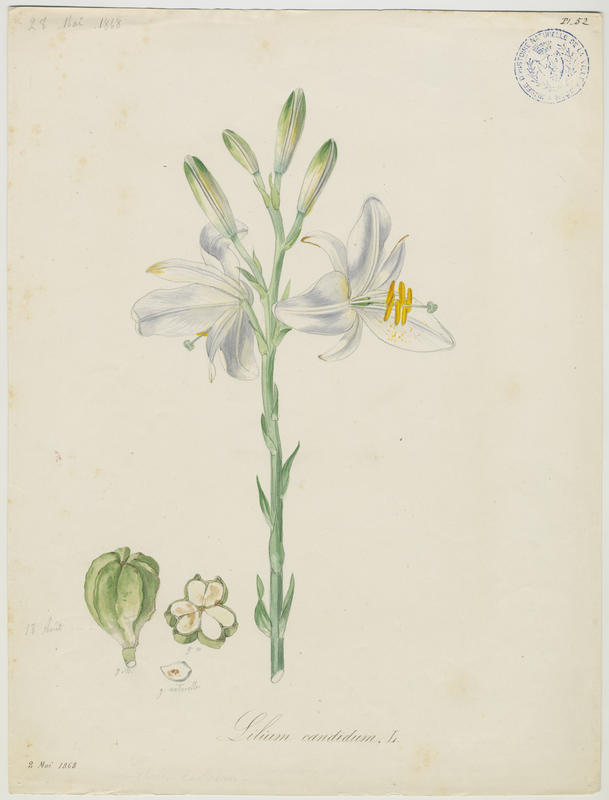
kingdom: Plantae
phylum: Tracheophyta
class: Liliopsida
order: Liliales
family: Liliaceae
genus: Lilium
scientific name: Lilium candidum
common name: Madonna lily
